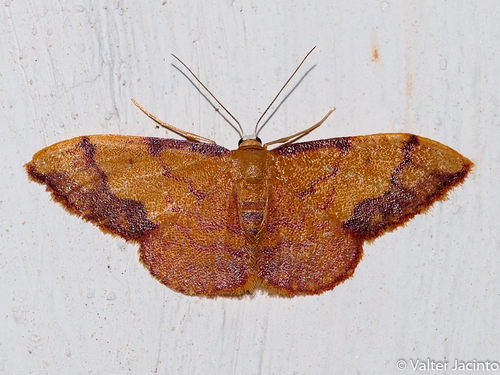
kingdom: Animalia
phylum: Arthropoda
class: Insecta
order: Lepidoptera
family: Geometridae
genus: Idaea
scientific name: Idaea ostrinaria
